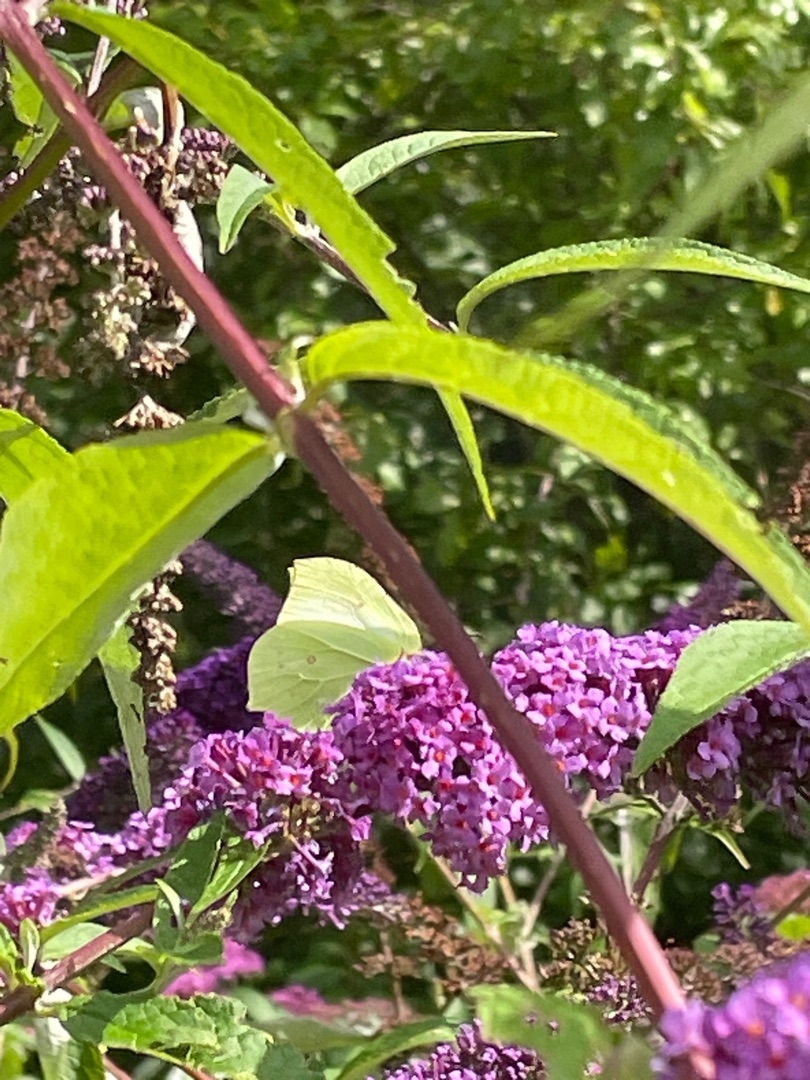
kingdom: Animalia
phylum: Arthropoda
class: Insecta
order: Lepidoptera
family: Pieridae
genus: Gonepteryx
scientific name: Gonepteryx rhamni
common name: Citronsommerfugl
